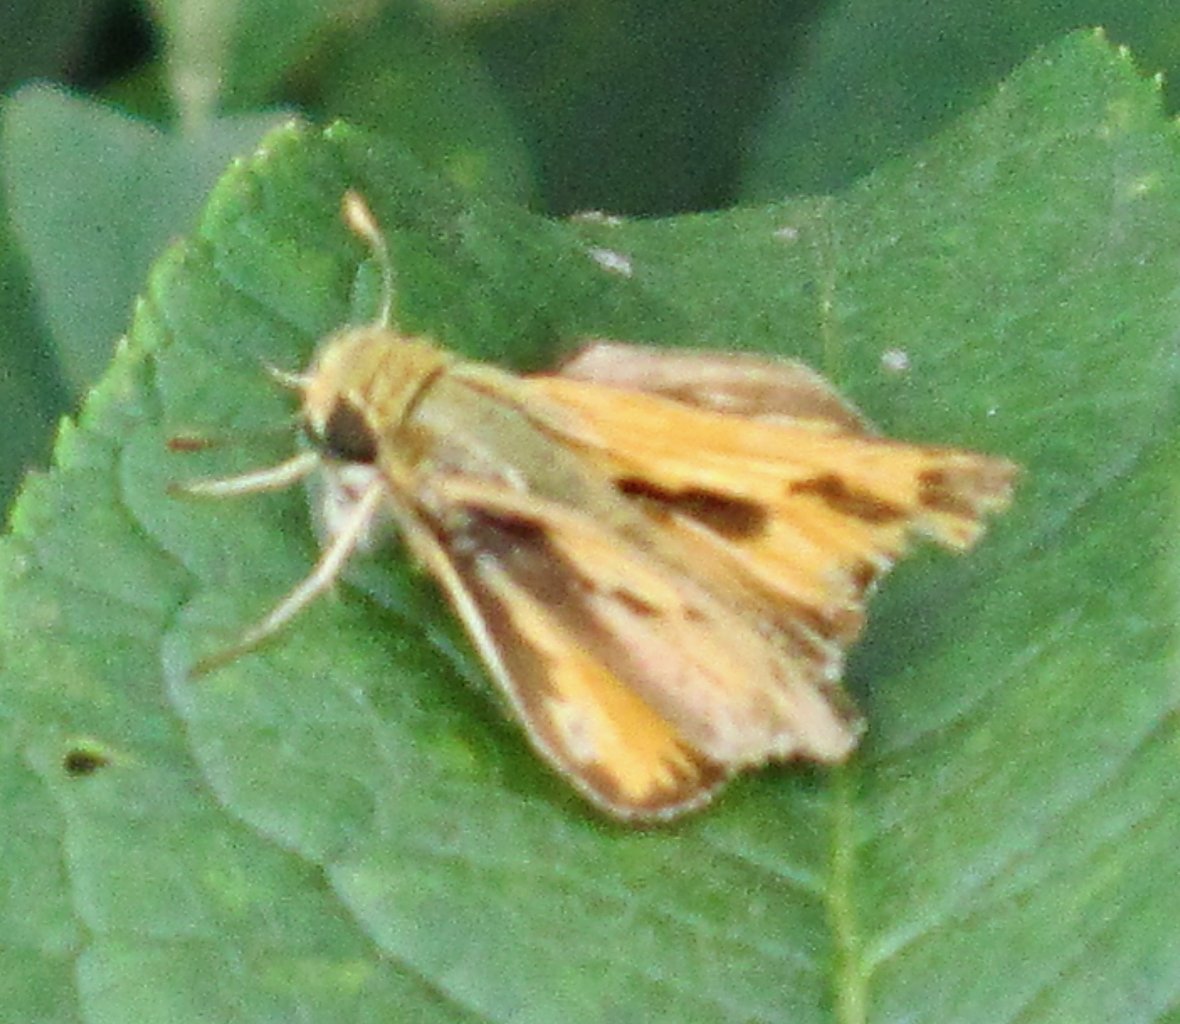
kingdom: Animalia
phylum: Arthropoda
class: Insecta
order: Lepidoptera
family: Hesperiidae
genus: Hylephila
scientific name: Hylephila phyleus
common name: Fiery Skipper
